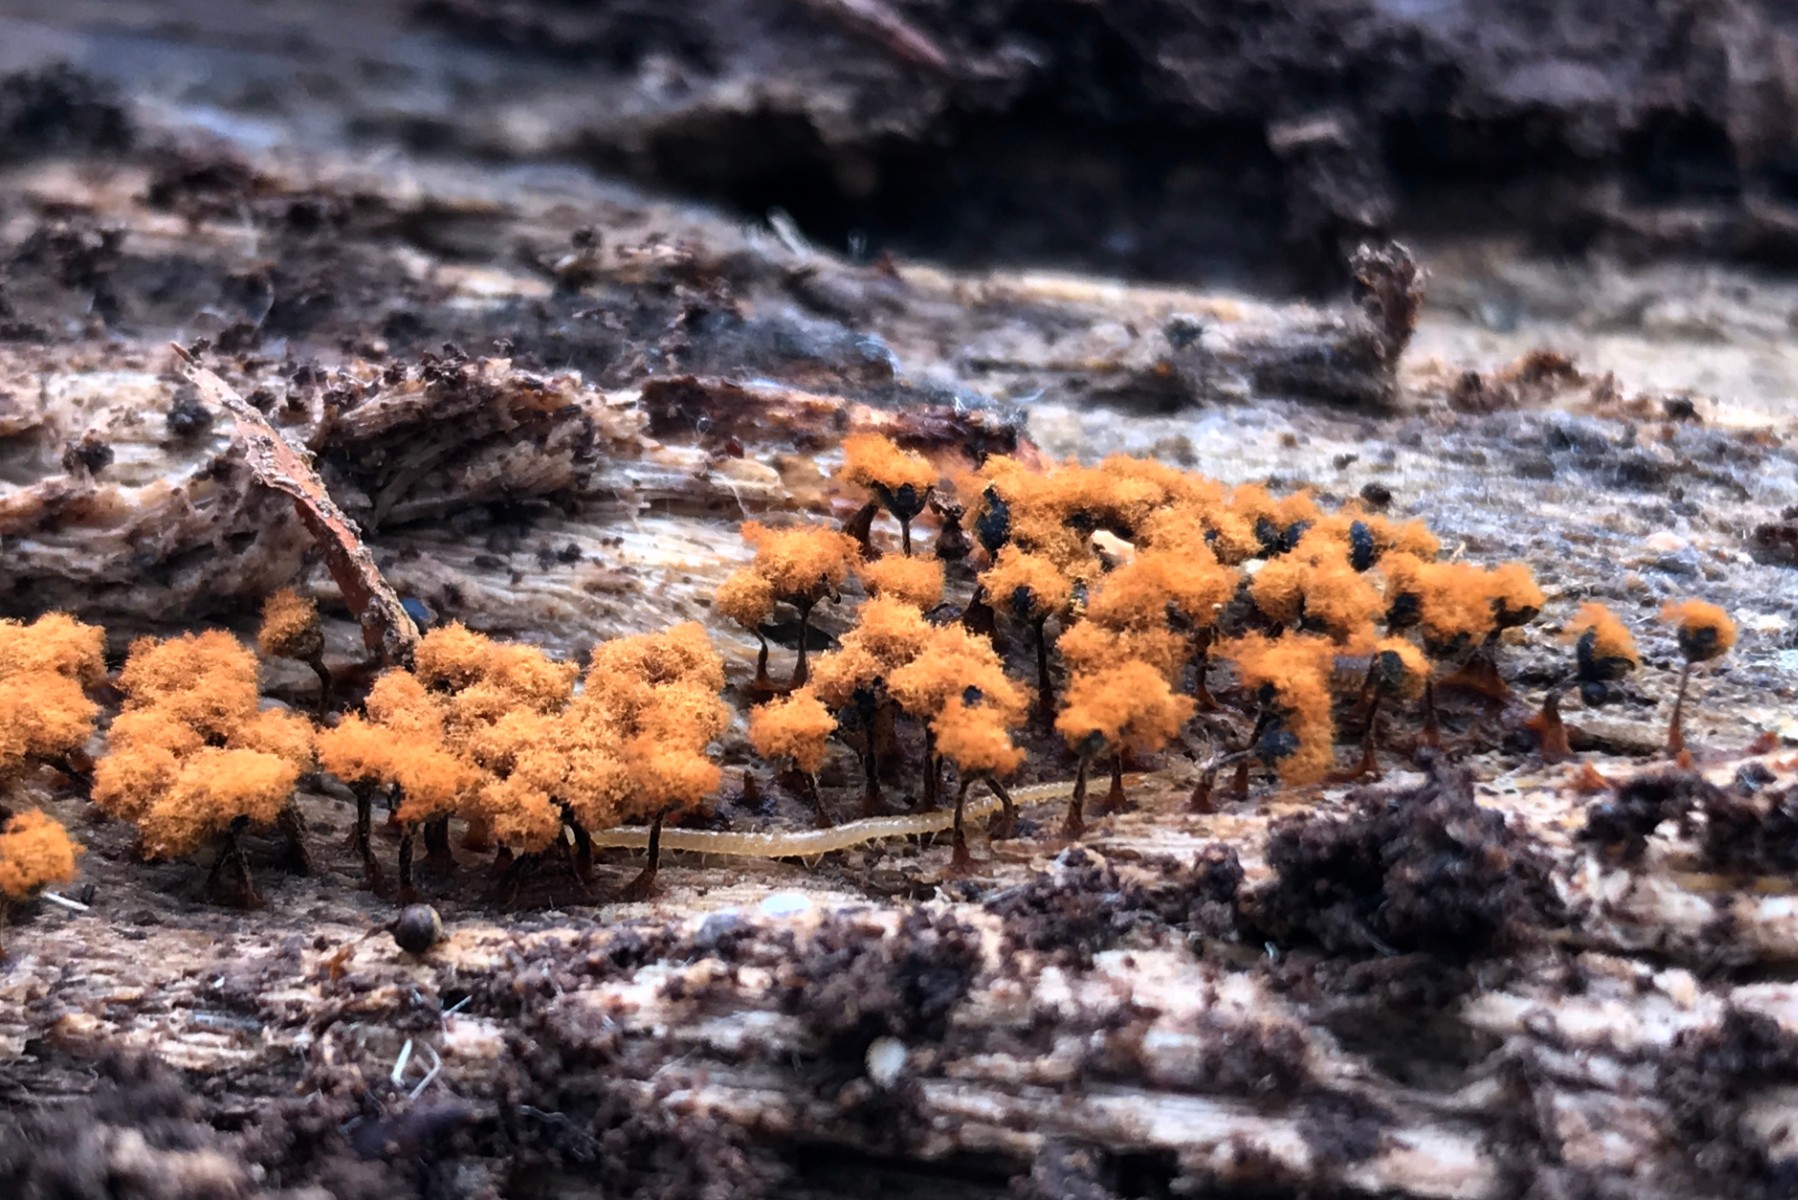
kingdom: Protozoa
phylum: Mycetozoa
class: Myxomycetes
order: Trichiales
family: Trichiaceae
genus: Metatrichia
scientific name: Metatrichia floriformis
